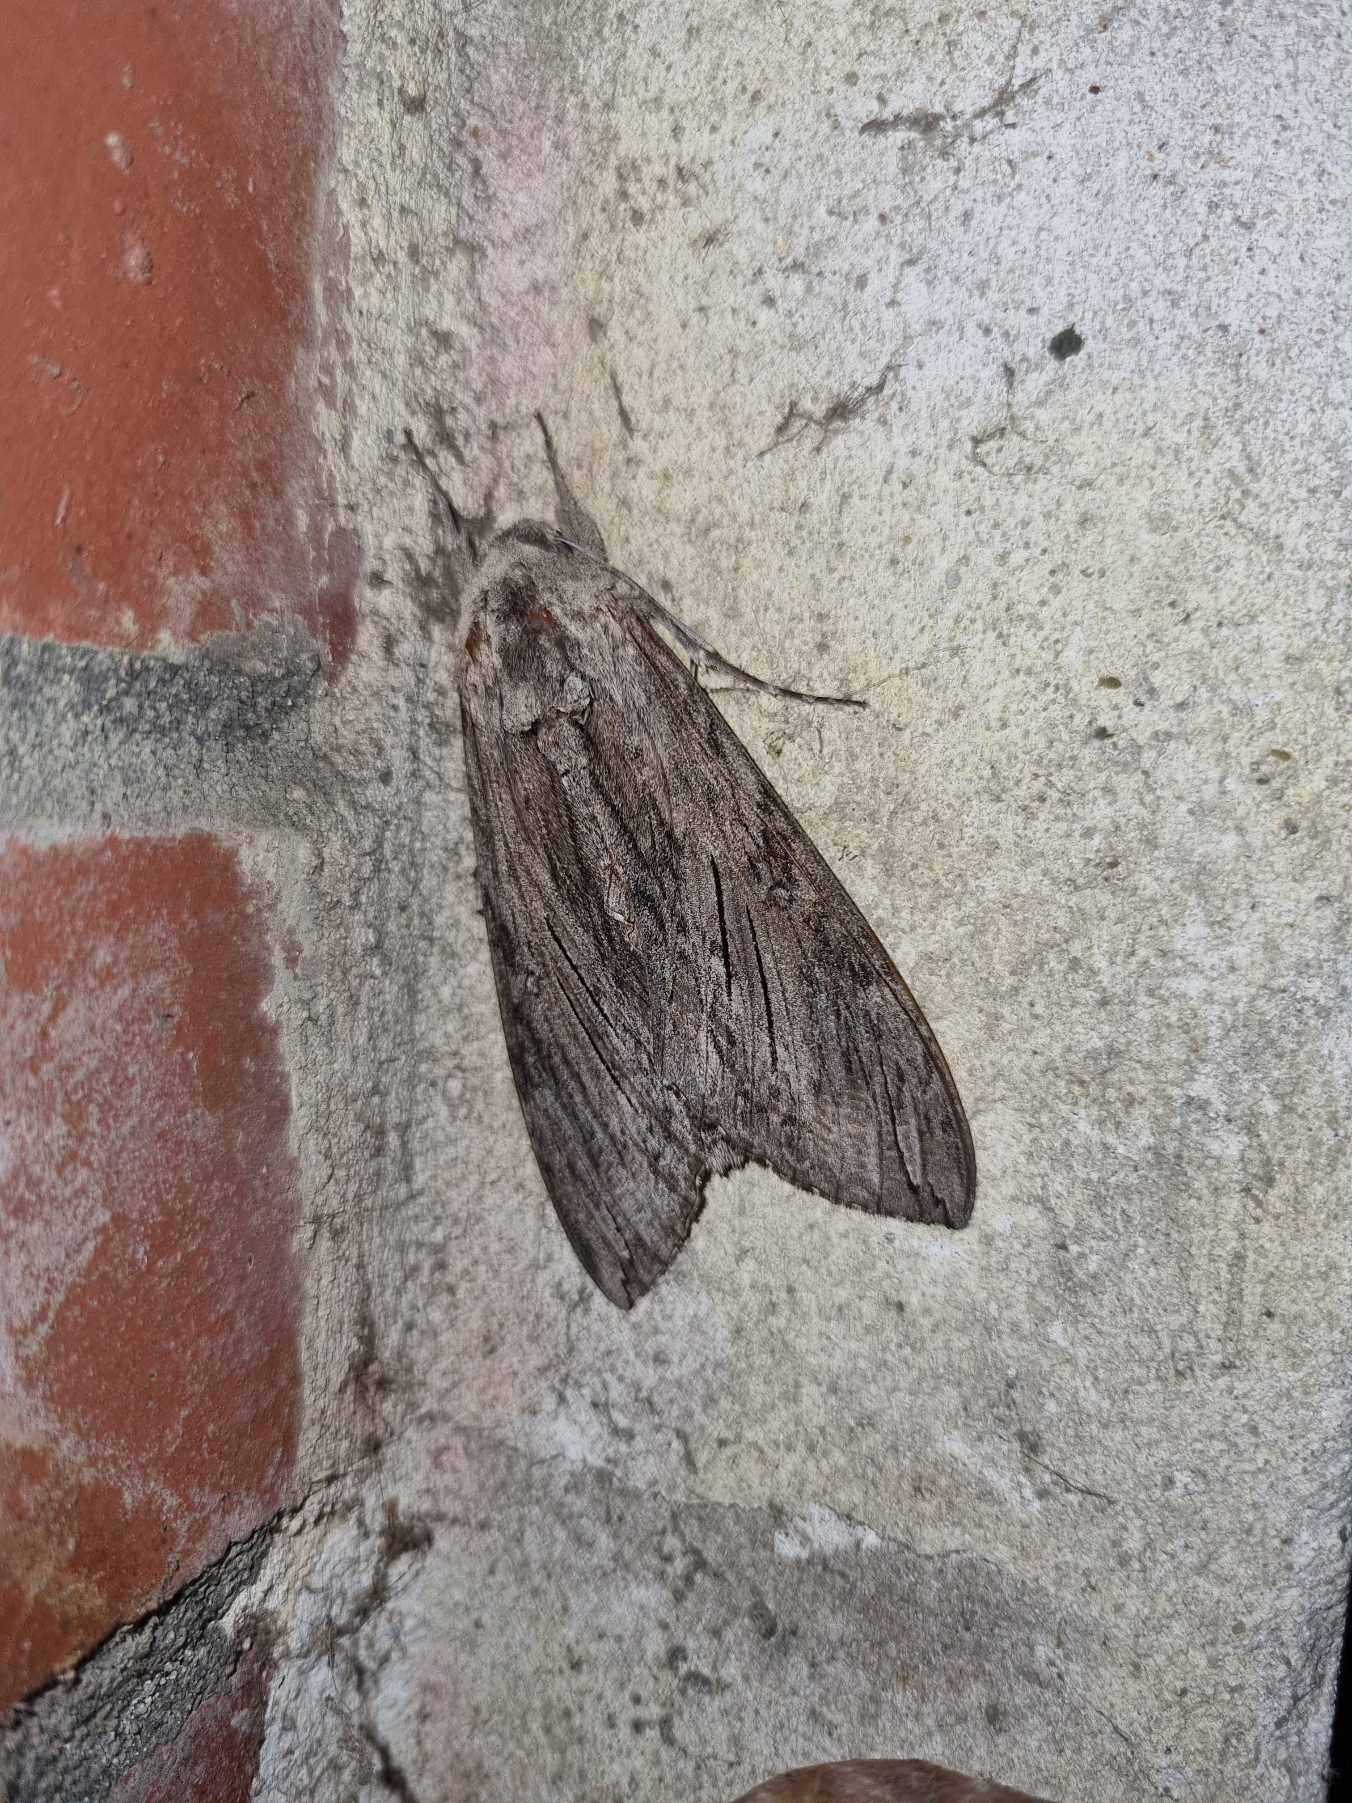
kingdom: Animalia
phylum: Arthropoda
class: Insecta
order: Lepidoptera
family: Sphingidae
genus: Agrius
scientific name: Agrius convolvuli
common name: Snerlesværmer
